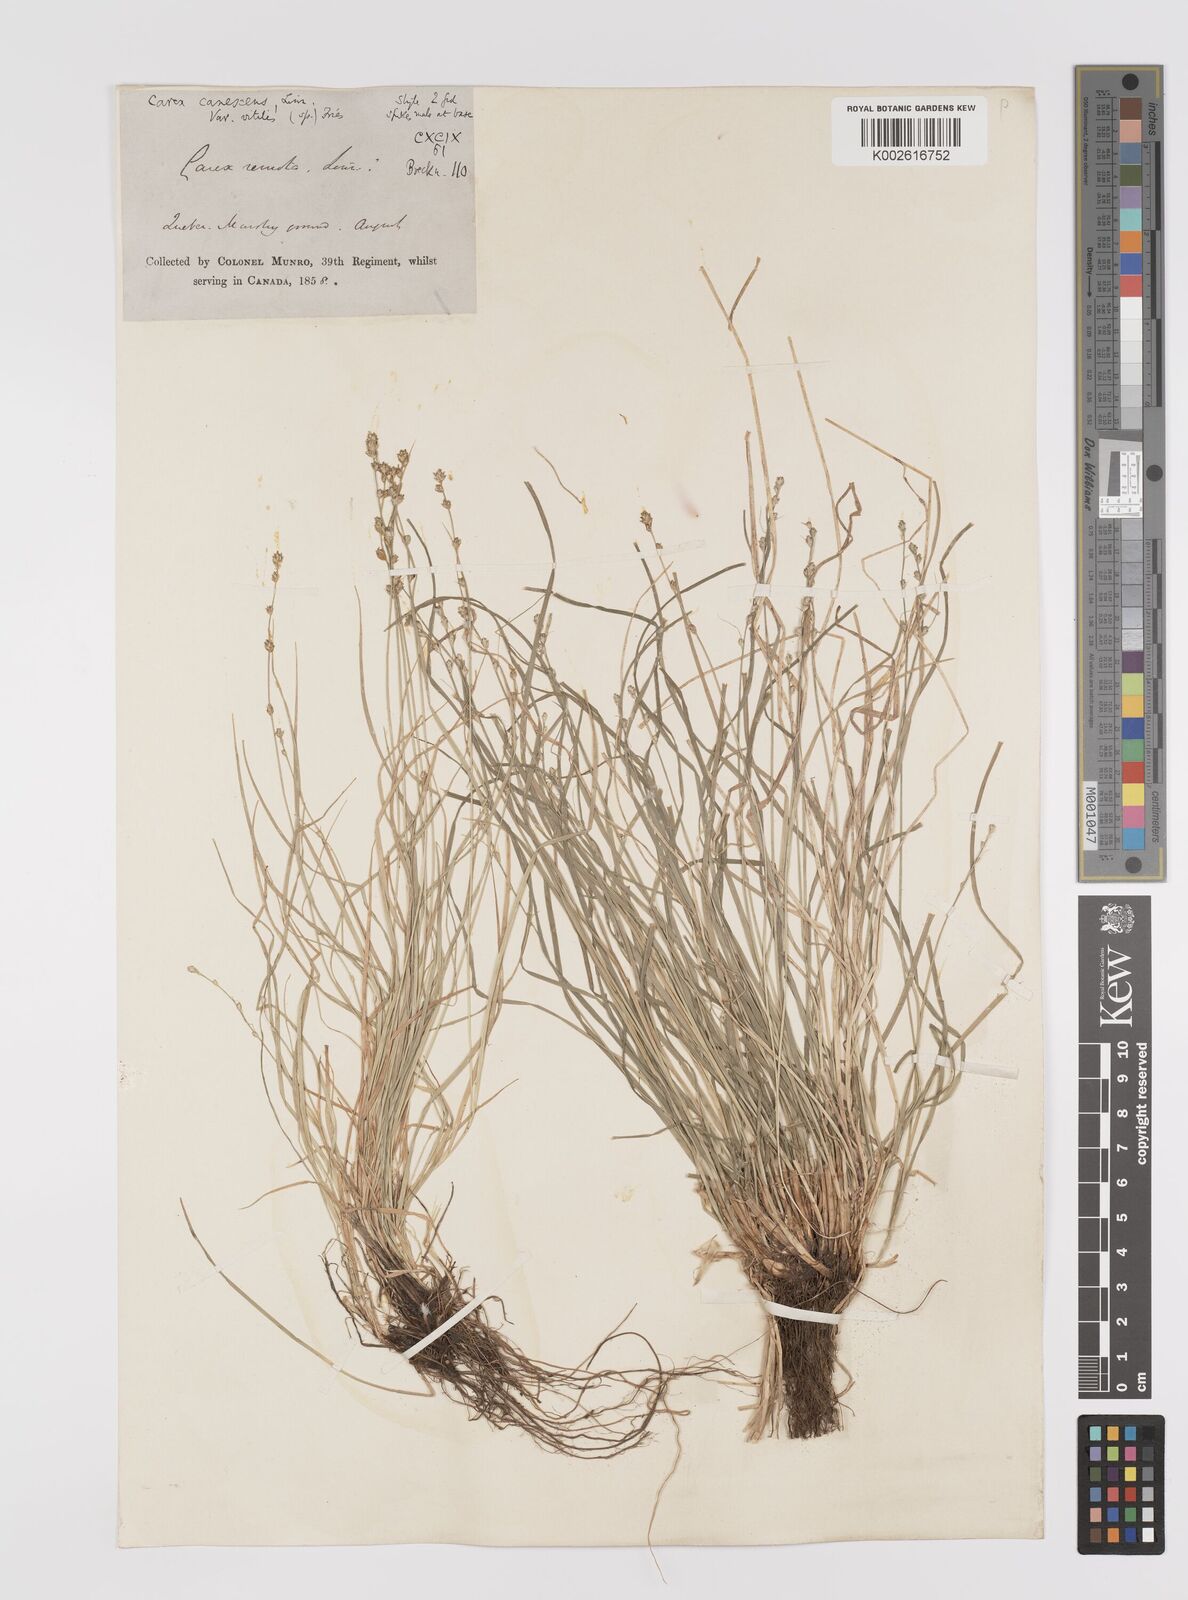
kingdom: Plantae
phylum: Tracheophyta
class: Liliopsida
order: Poales
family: Cyperaceae
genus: Carex
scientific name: Carex athrostachya
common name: Slenderbeak sedge
